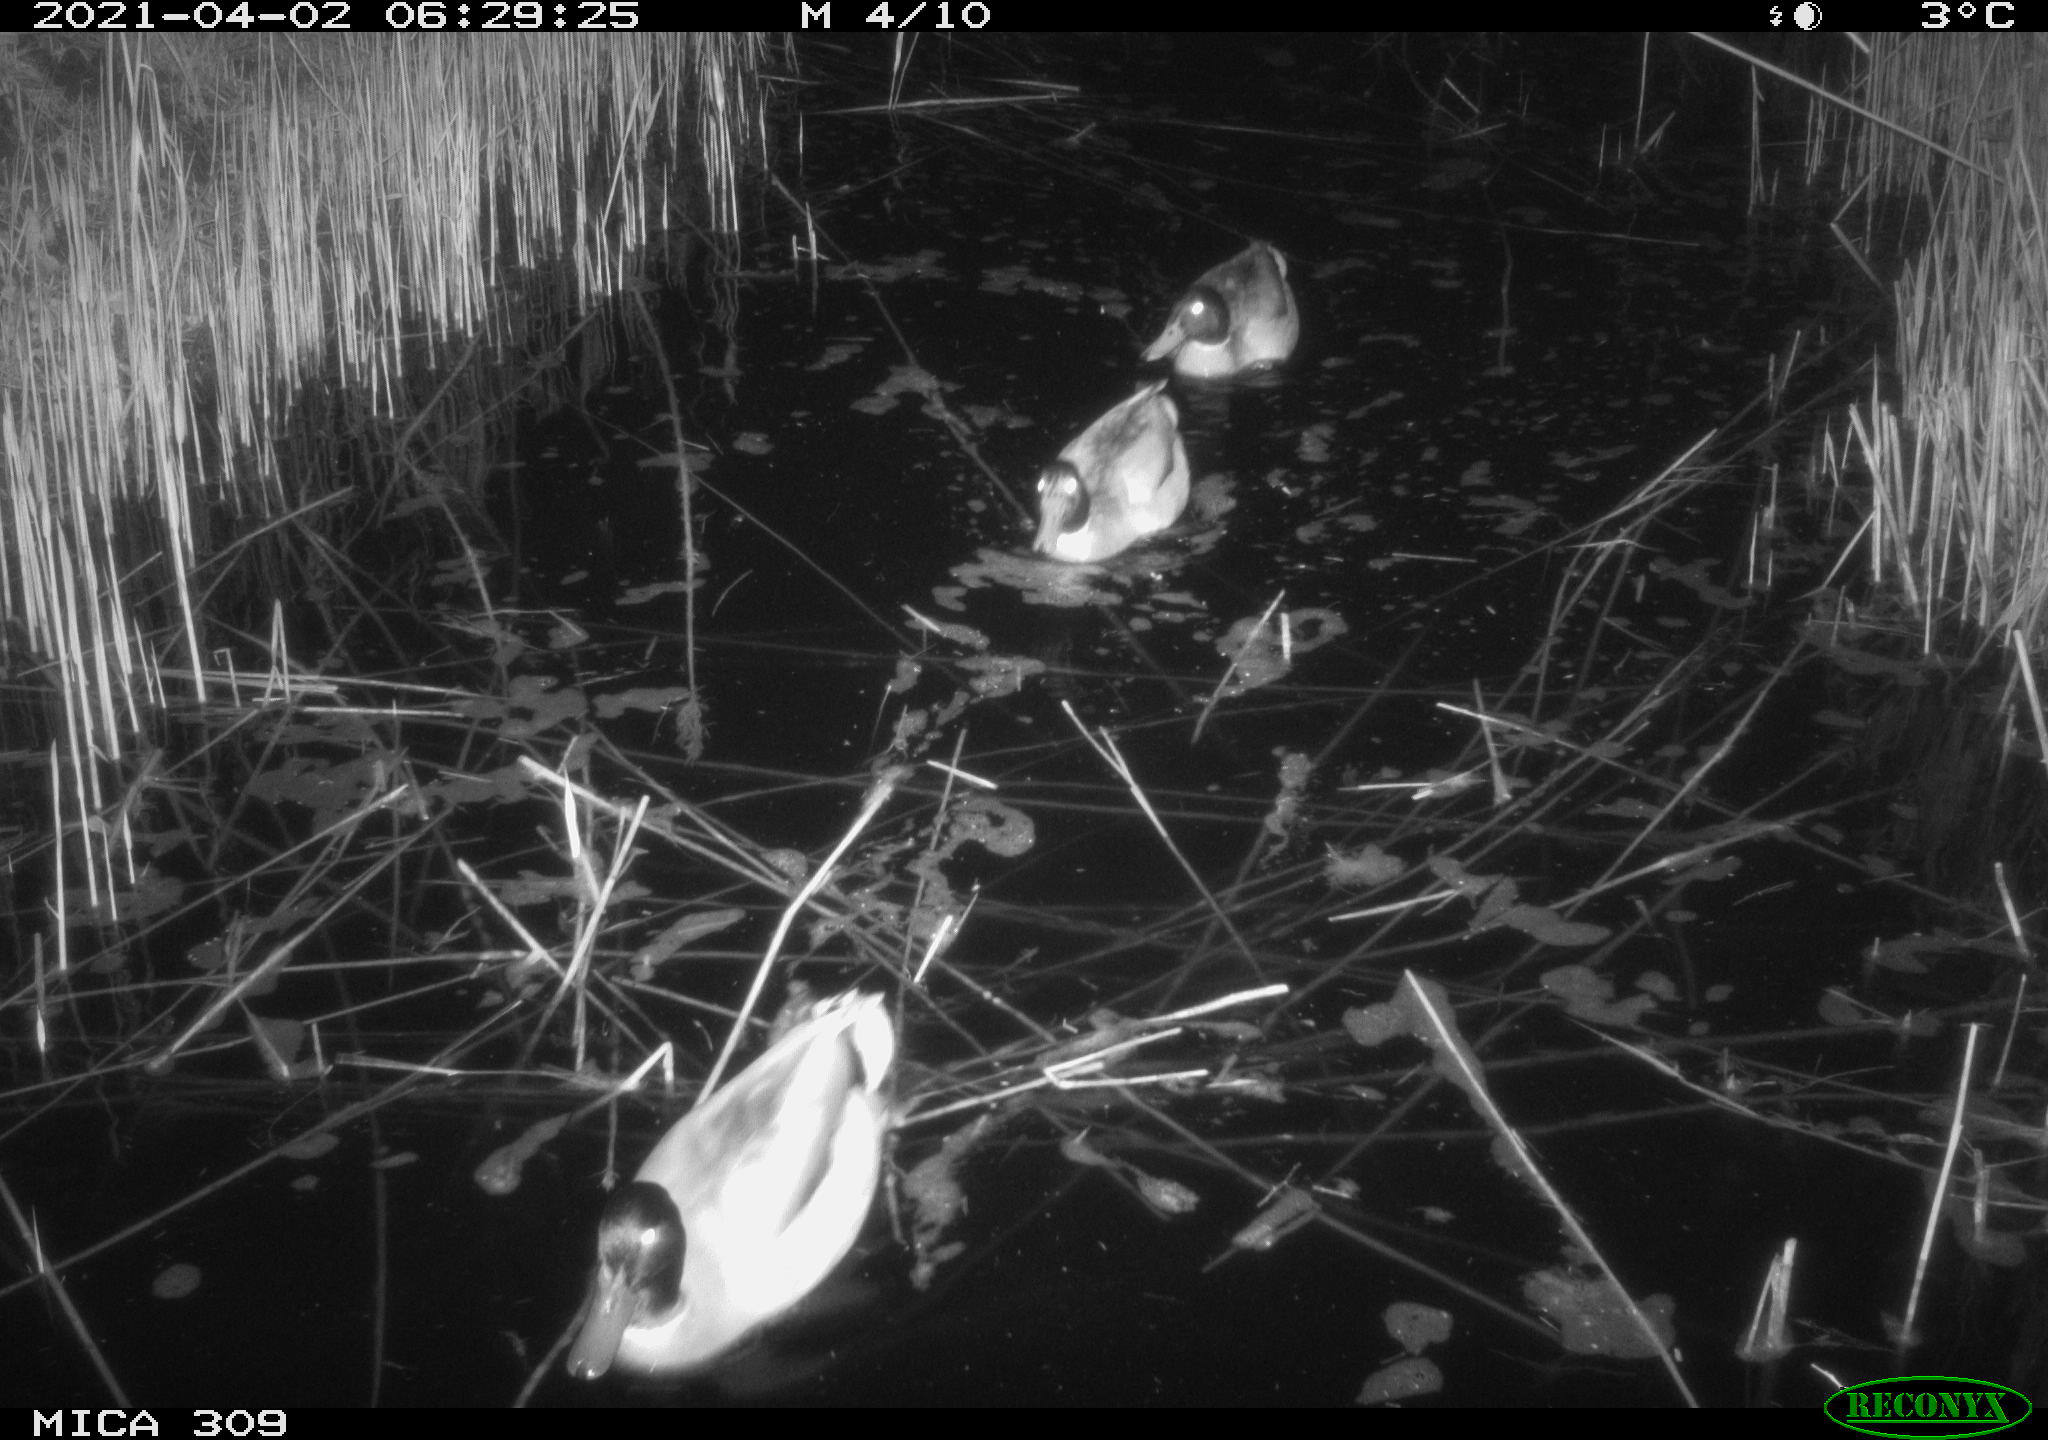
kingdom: Animalia
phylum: Chordata
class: Aves
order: Anseriformes
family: Anatidae
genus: Anas
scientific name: Anas platyrhynchos
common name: Mallard
